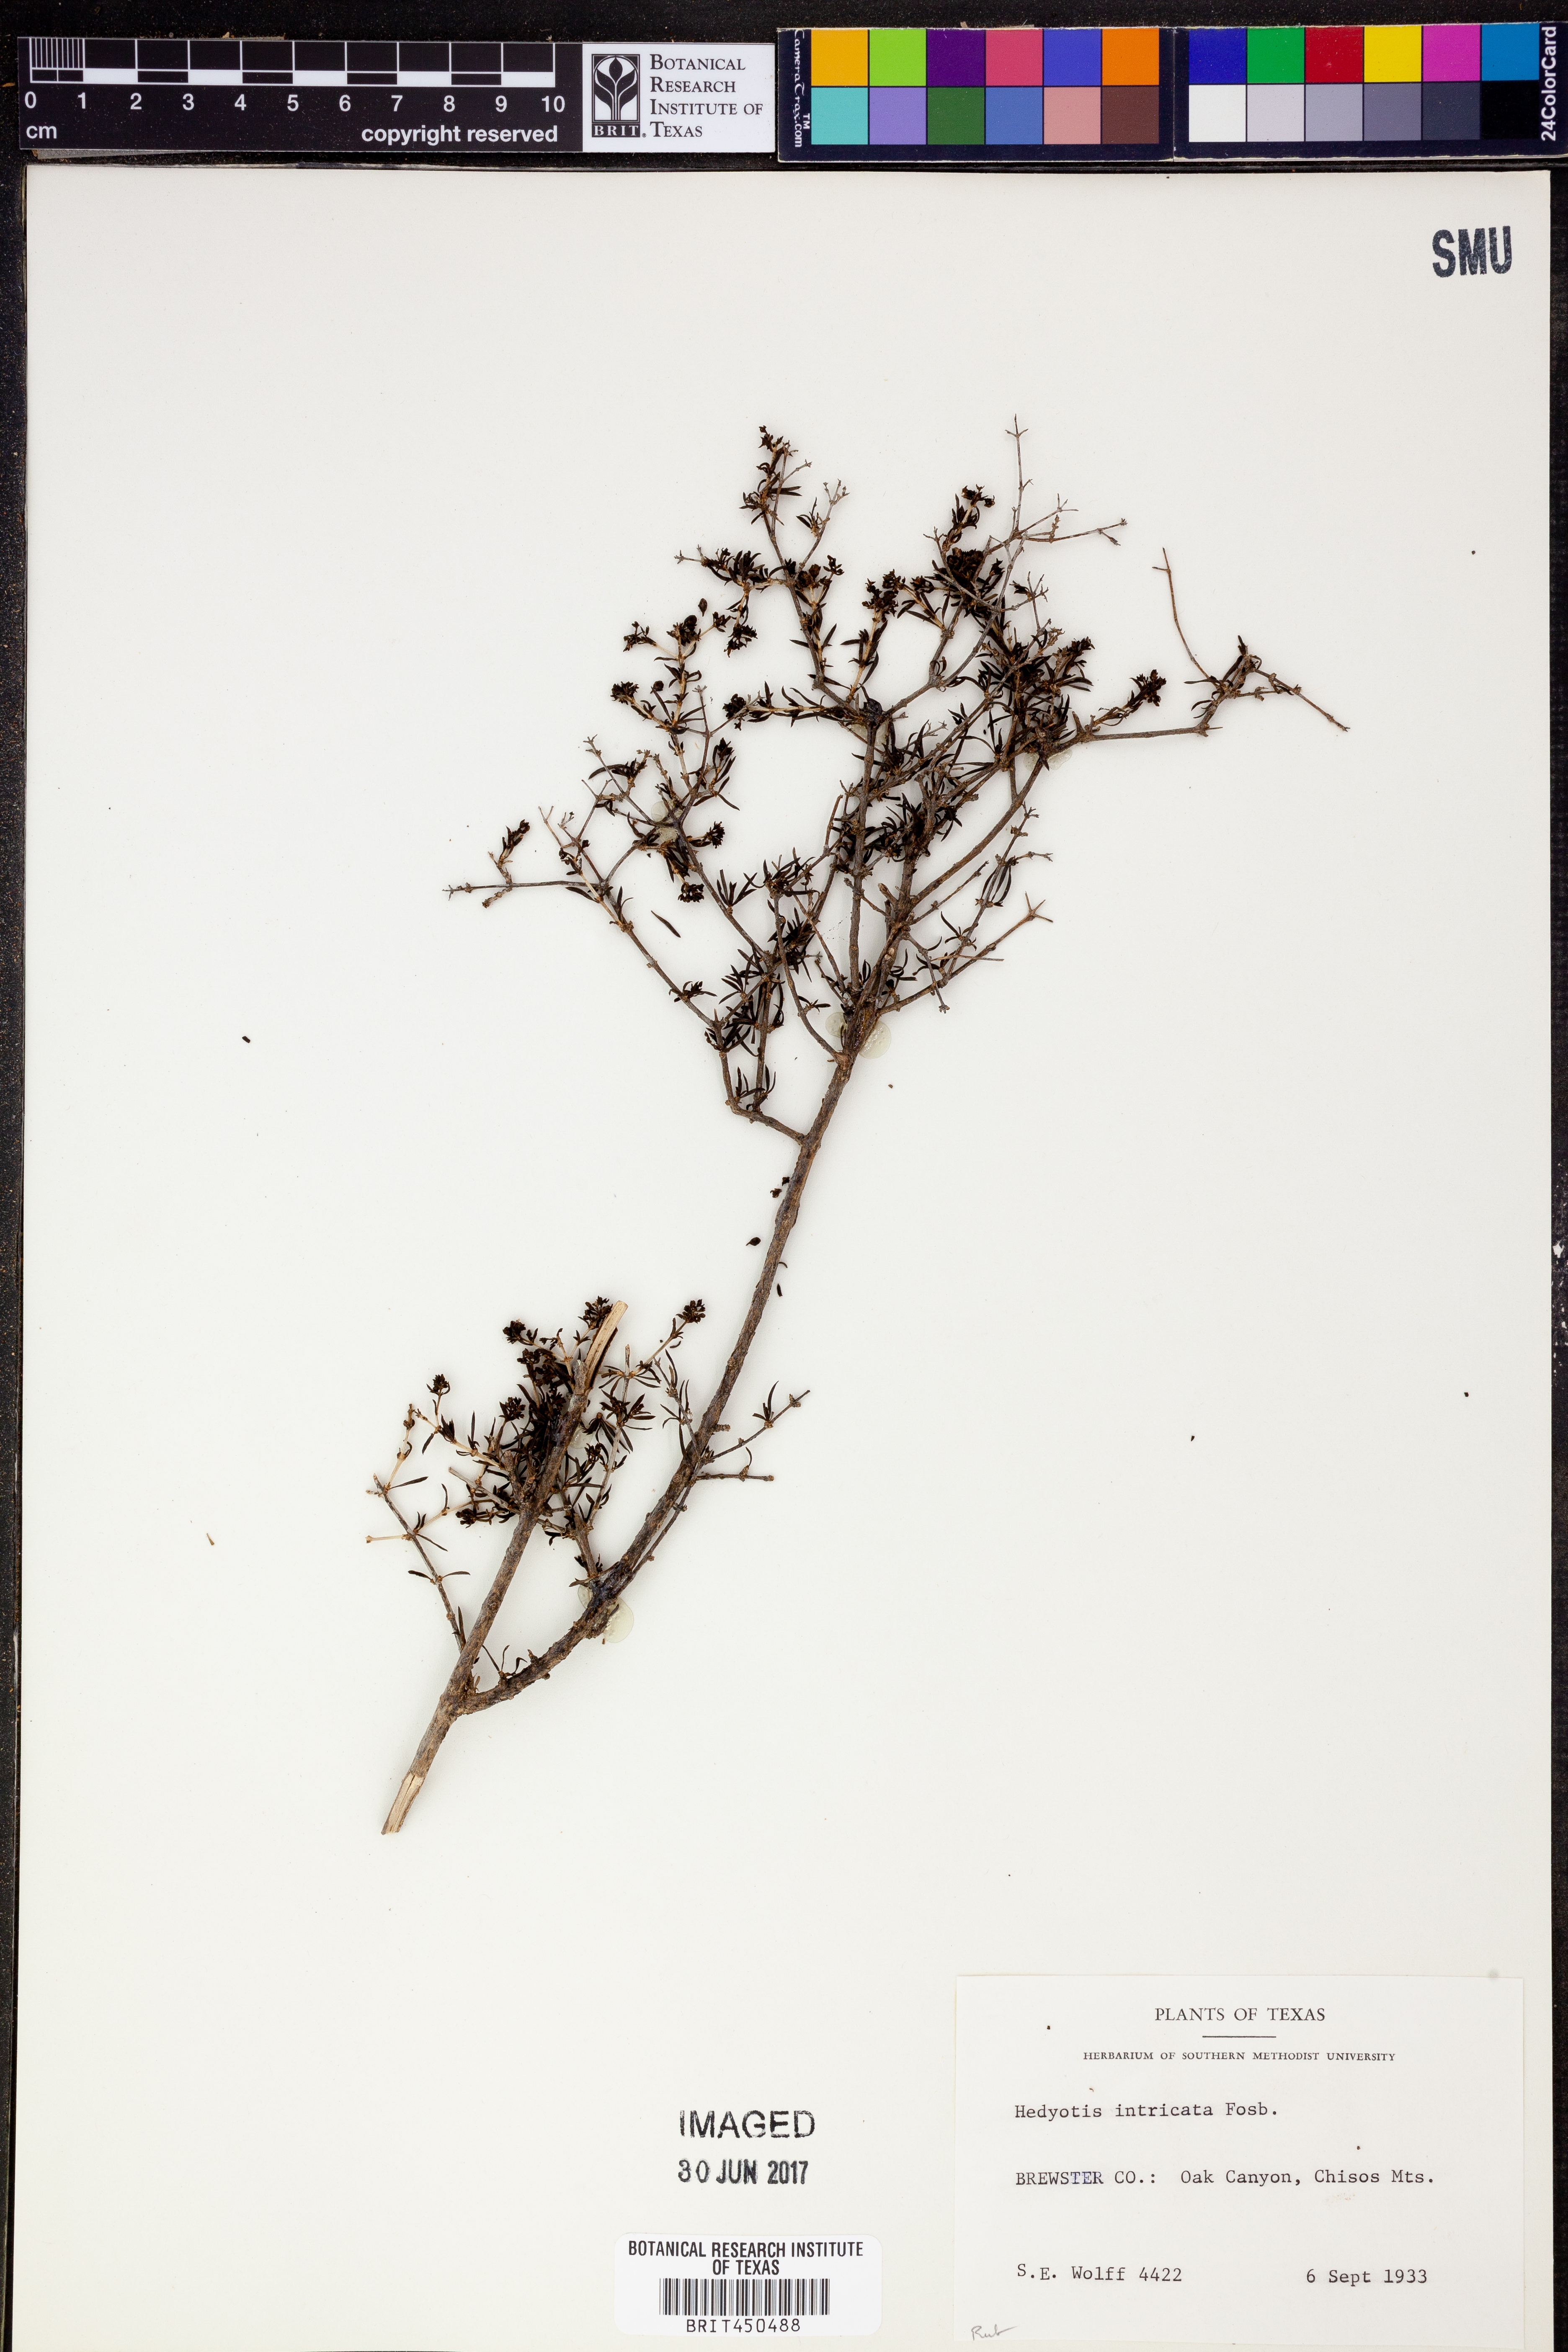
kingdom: Plantae
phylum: Tracheophyta
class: Magnoliopsida
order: Gentianales
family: Rubiaceae
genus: Arcytophyllum
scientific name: Arcytophyllum fasciculatum
